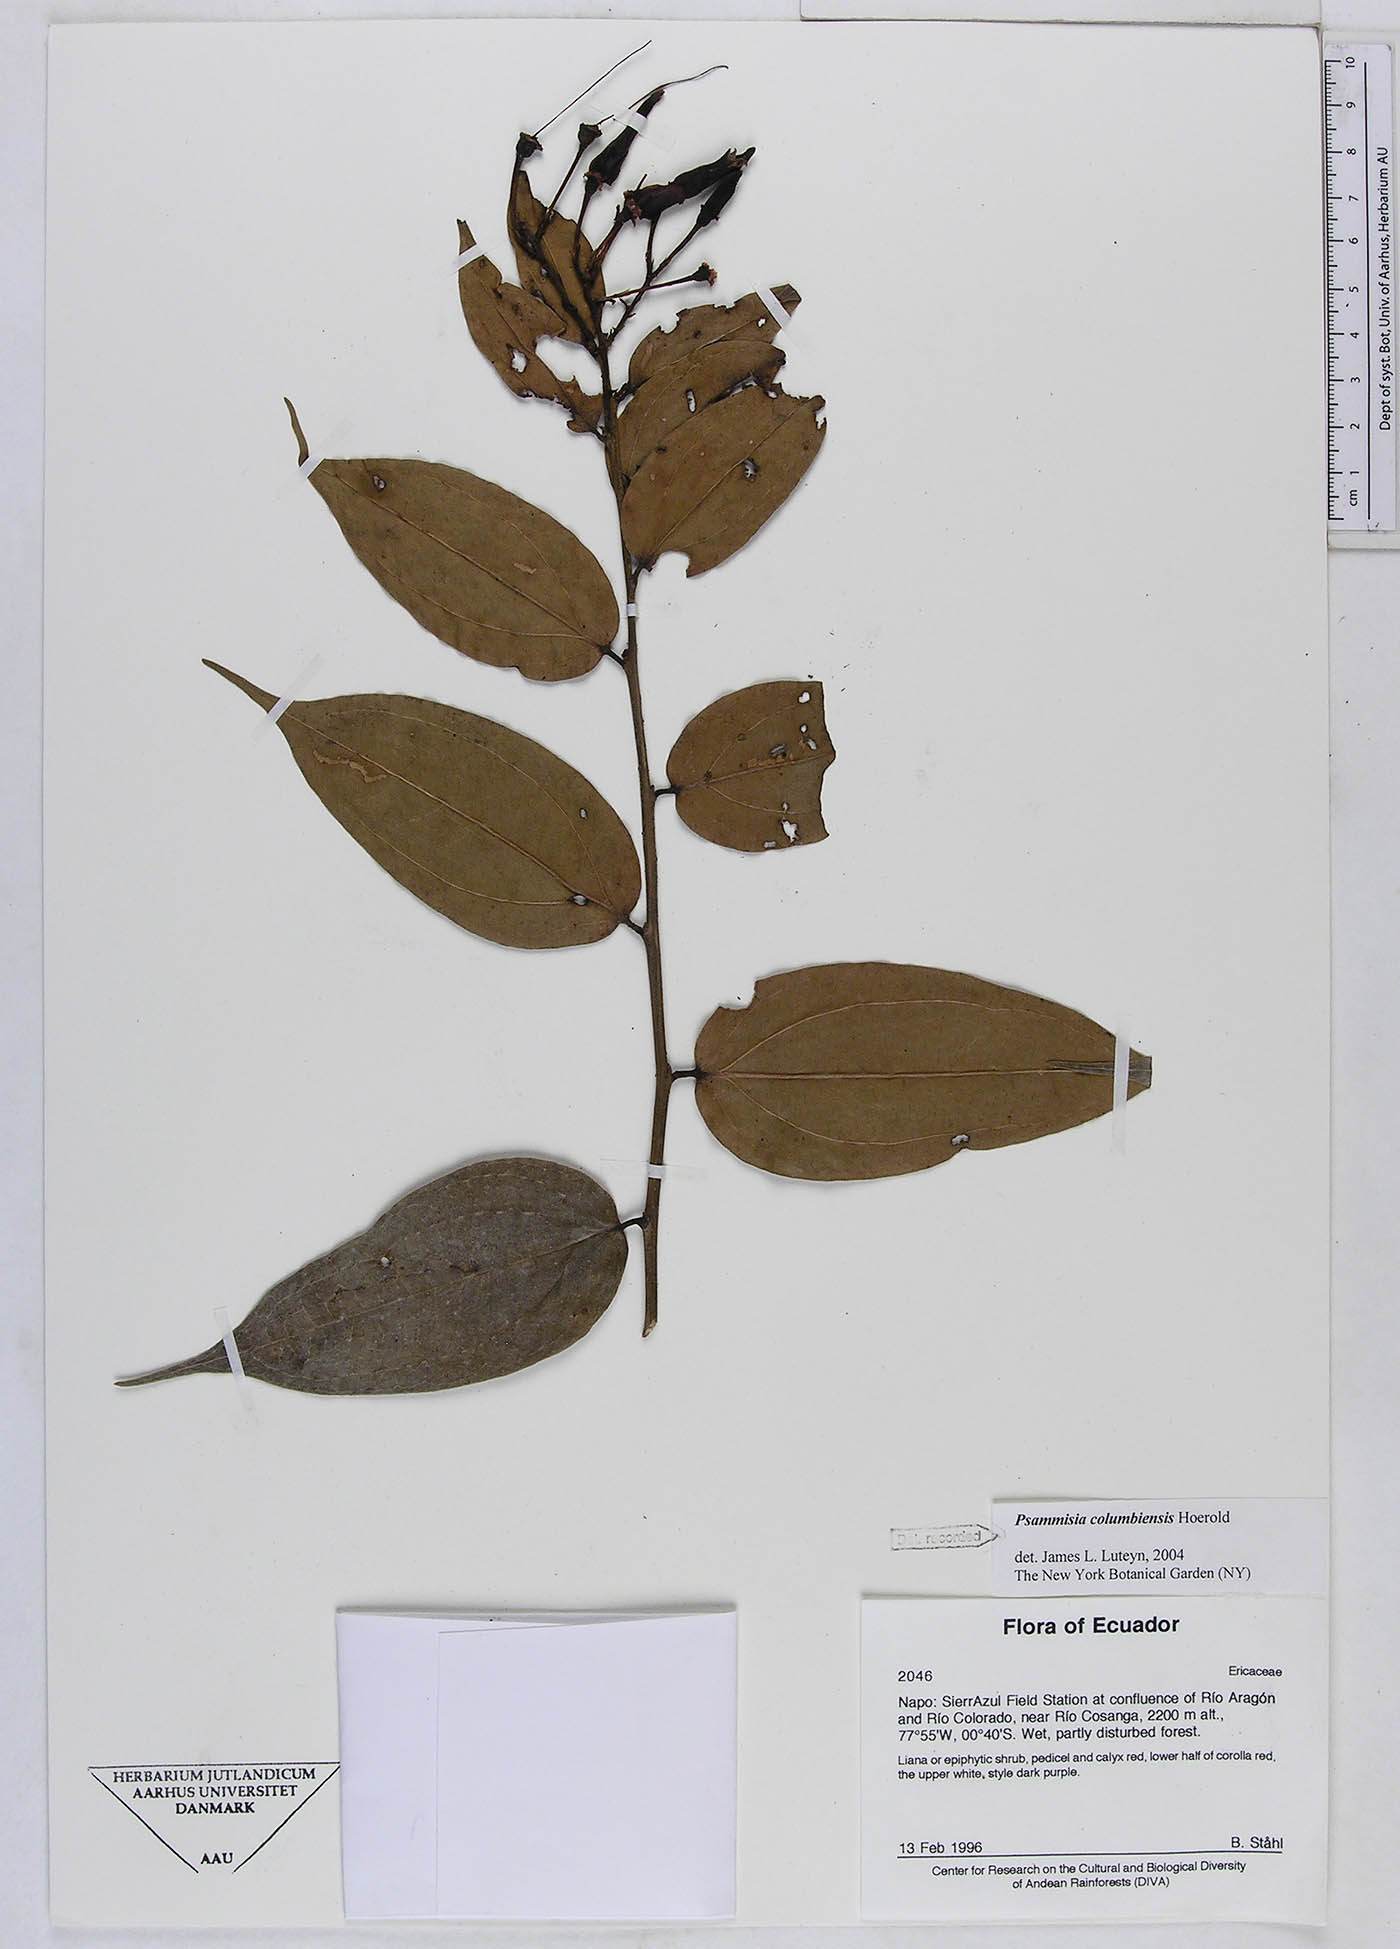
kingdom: Plantae
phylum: Tracheophyta
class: Magnoliopsida
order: Ericales
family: Ericaceae
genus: Psammisia
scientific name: Psammisia columbiensis
